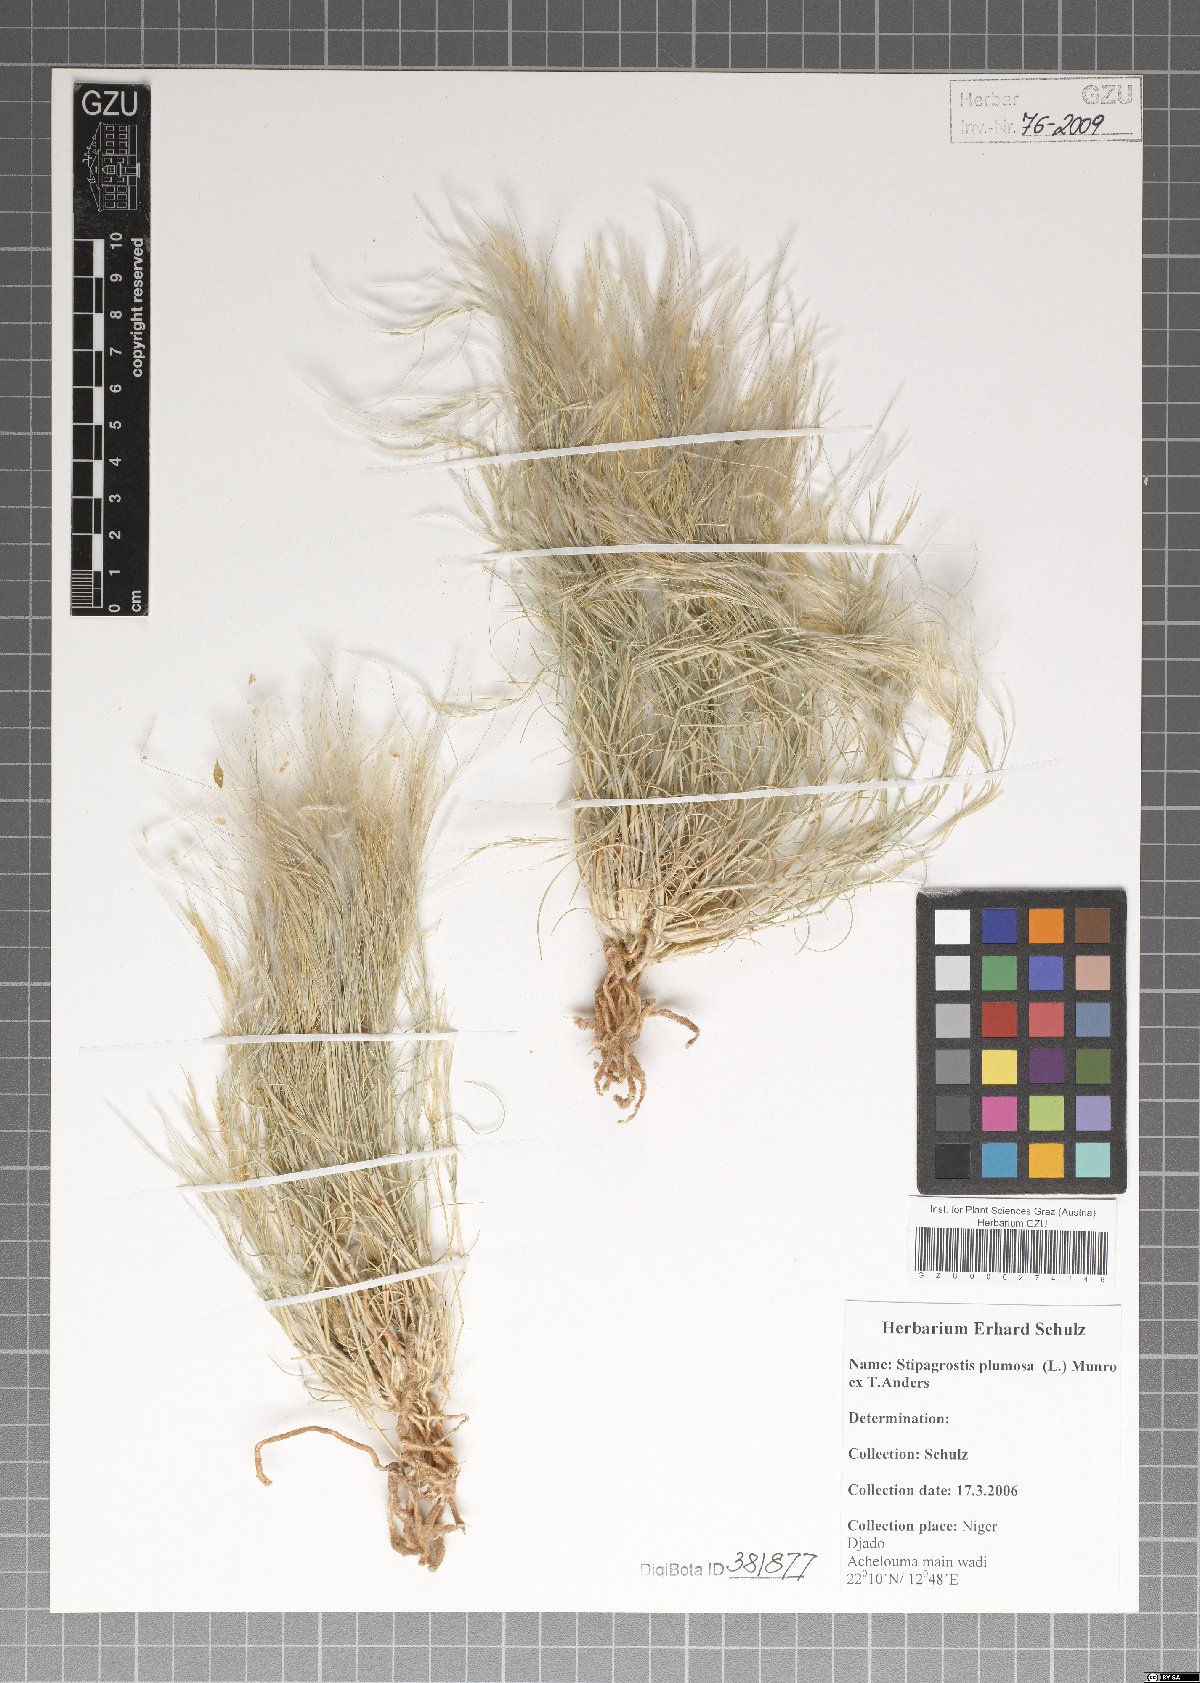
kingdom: Plantae
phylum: Tracheophyta
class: Liliopsida
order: Poales
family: Poaceae
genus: Stipagrostis
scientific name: Stipagrostis plumosa
